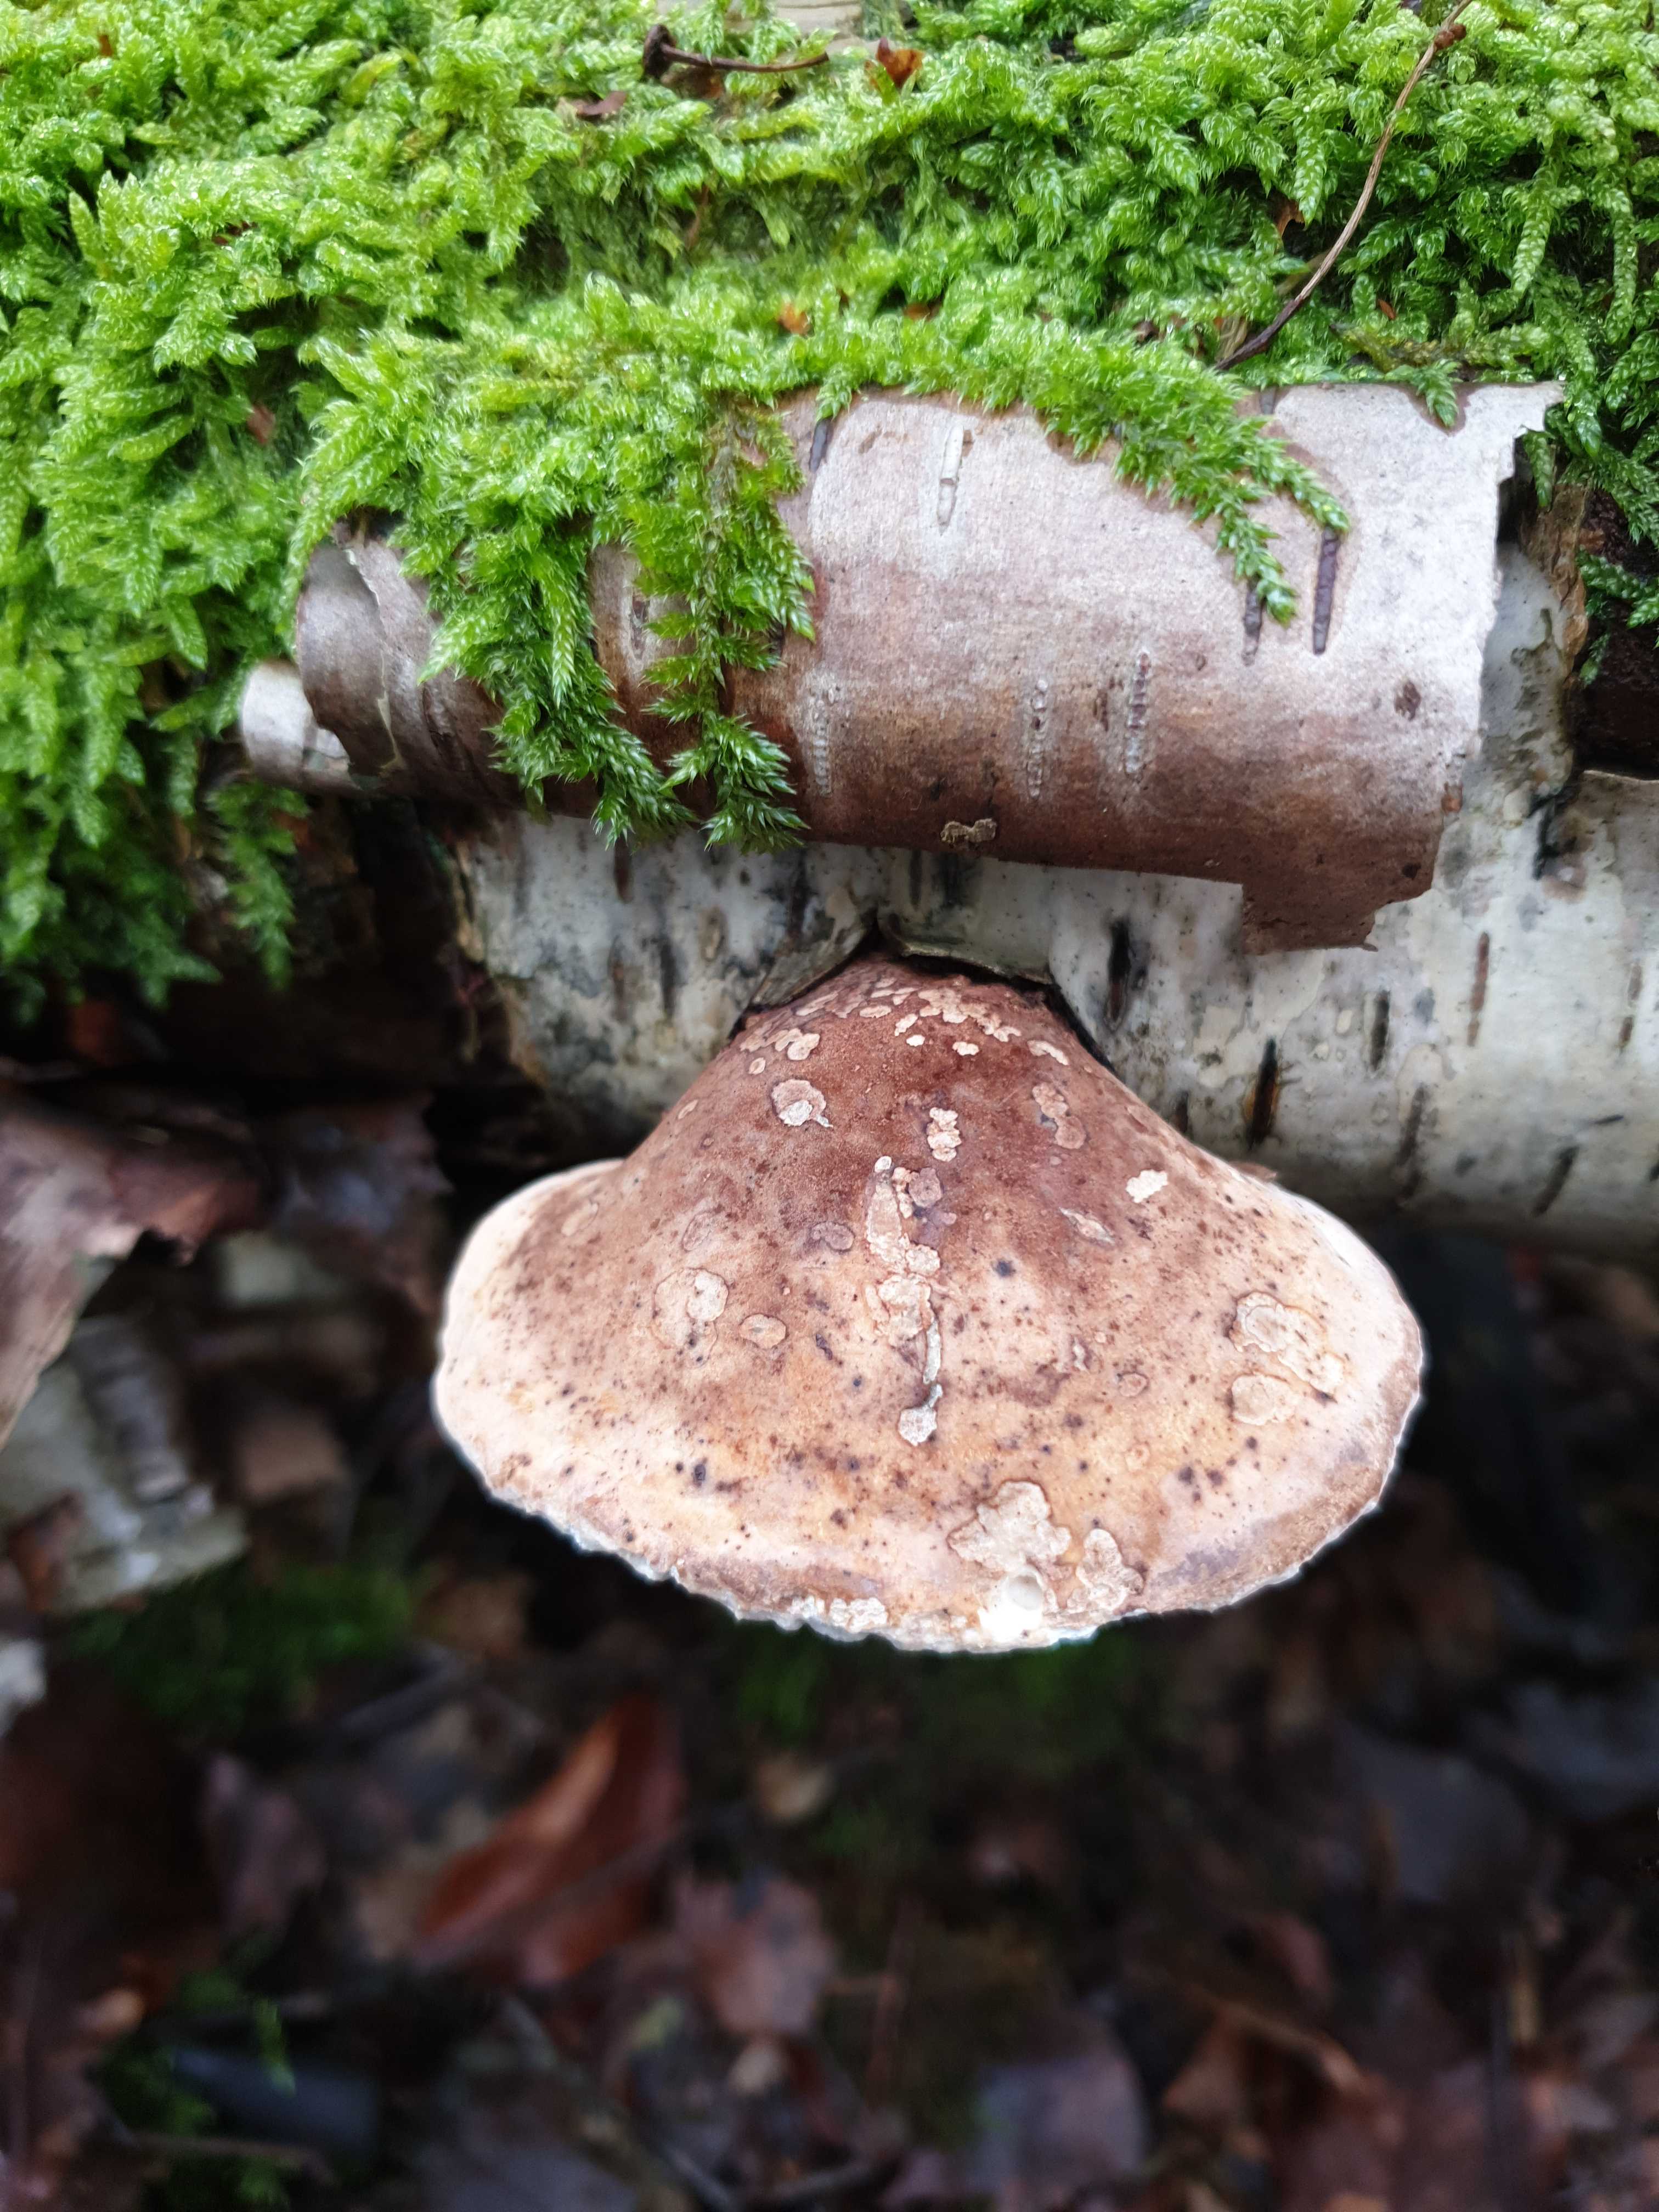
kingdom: Fungi
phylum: Basidiomycota
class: Agaricomycetes
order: Polyporales
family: Fomitopsidaceae
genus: Fomitopsis
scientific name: Fomitopsis betulina
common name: birkeporesvamp
